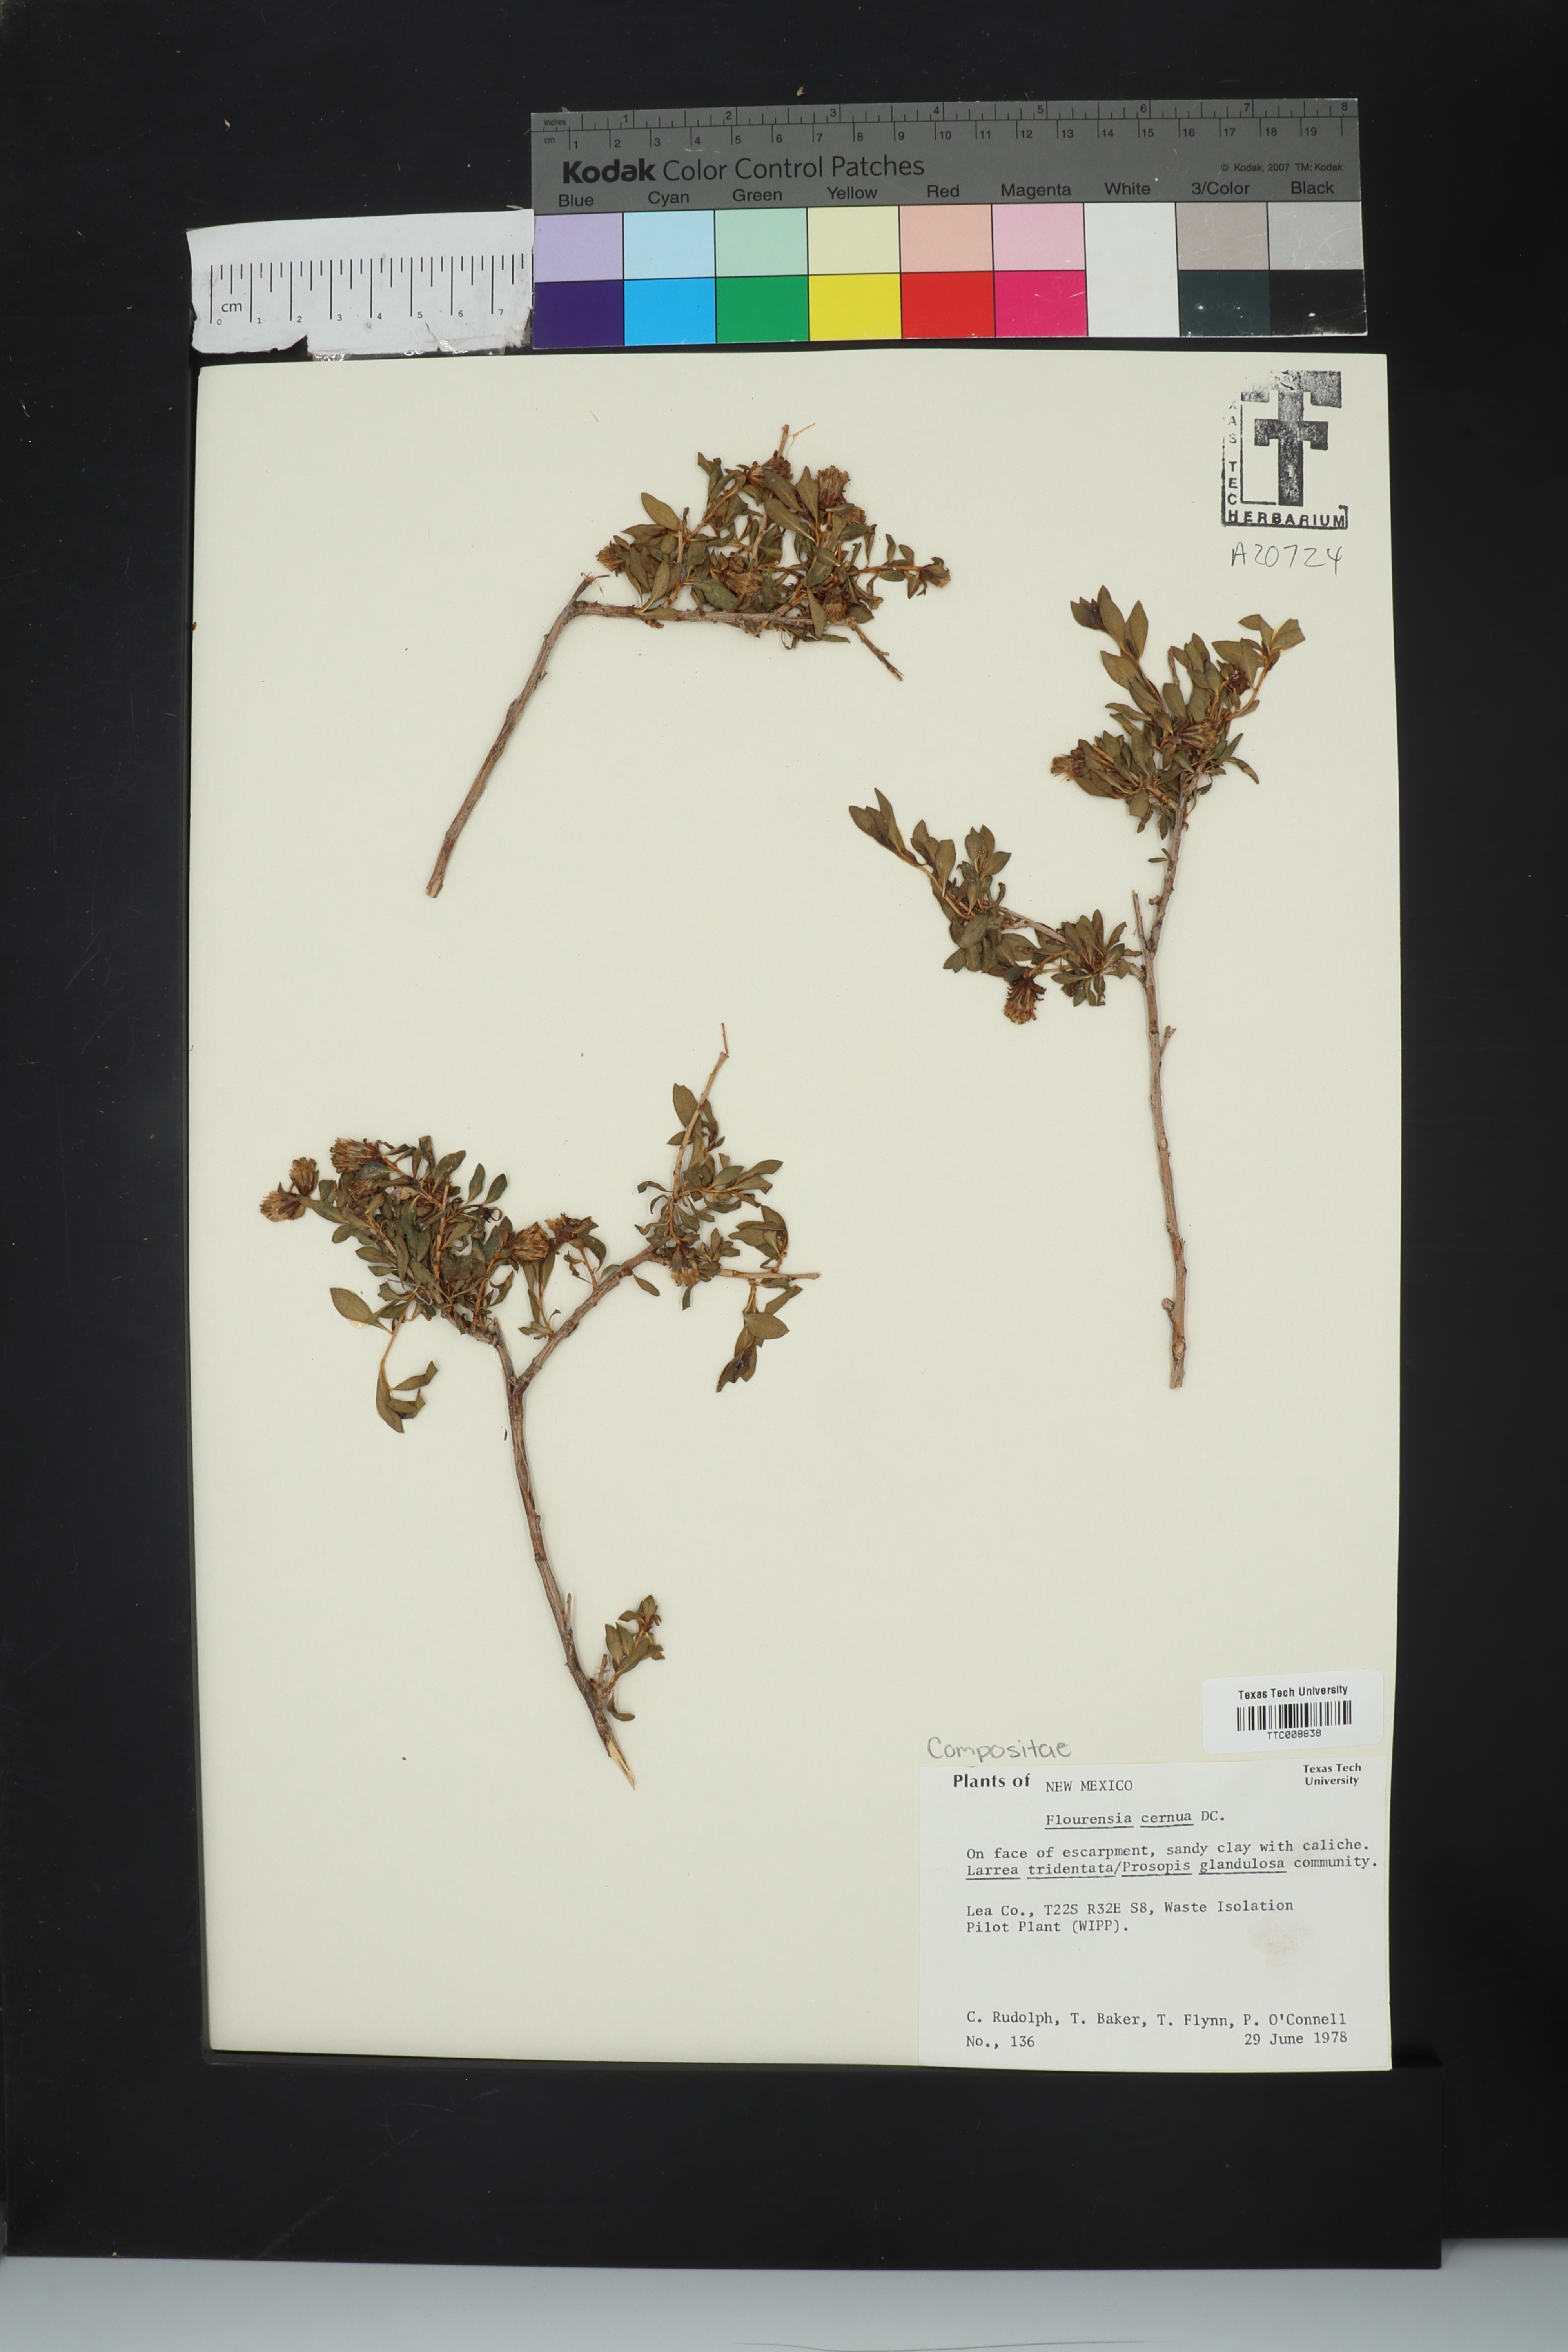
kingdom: Plantae
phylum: Tracheophyta
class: Magnoliopsida
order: Asterales
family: Asteraceae
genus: Flourensia
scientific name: Flourensia cernua
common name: Varnishbush
